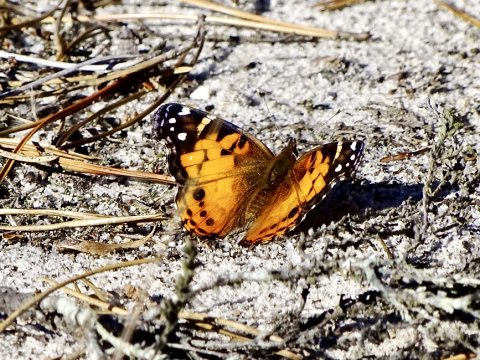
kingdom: Animalia
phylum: Arthropoda
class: Insecta
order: Lepidoptera
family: Nymphalidae
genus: Vanessa
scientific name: Vanessa virginiensis
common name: American Lady
